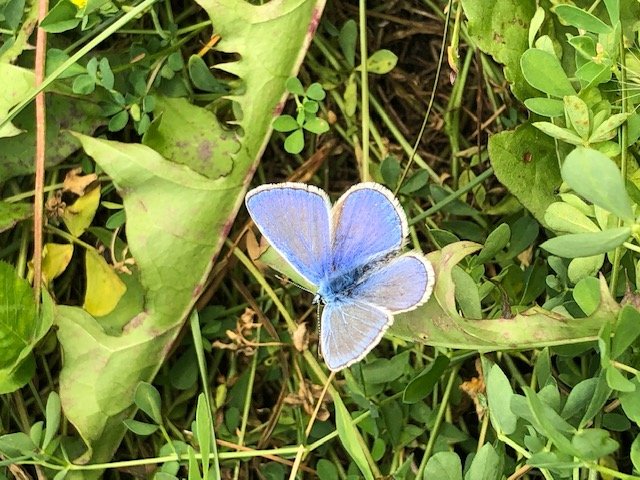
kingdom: Animalia
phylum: Arthropoda
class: Insecta
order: Lepidoptera
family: Lycaenidae
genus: Polyommatus
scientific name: Polyommatus icarus
